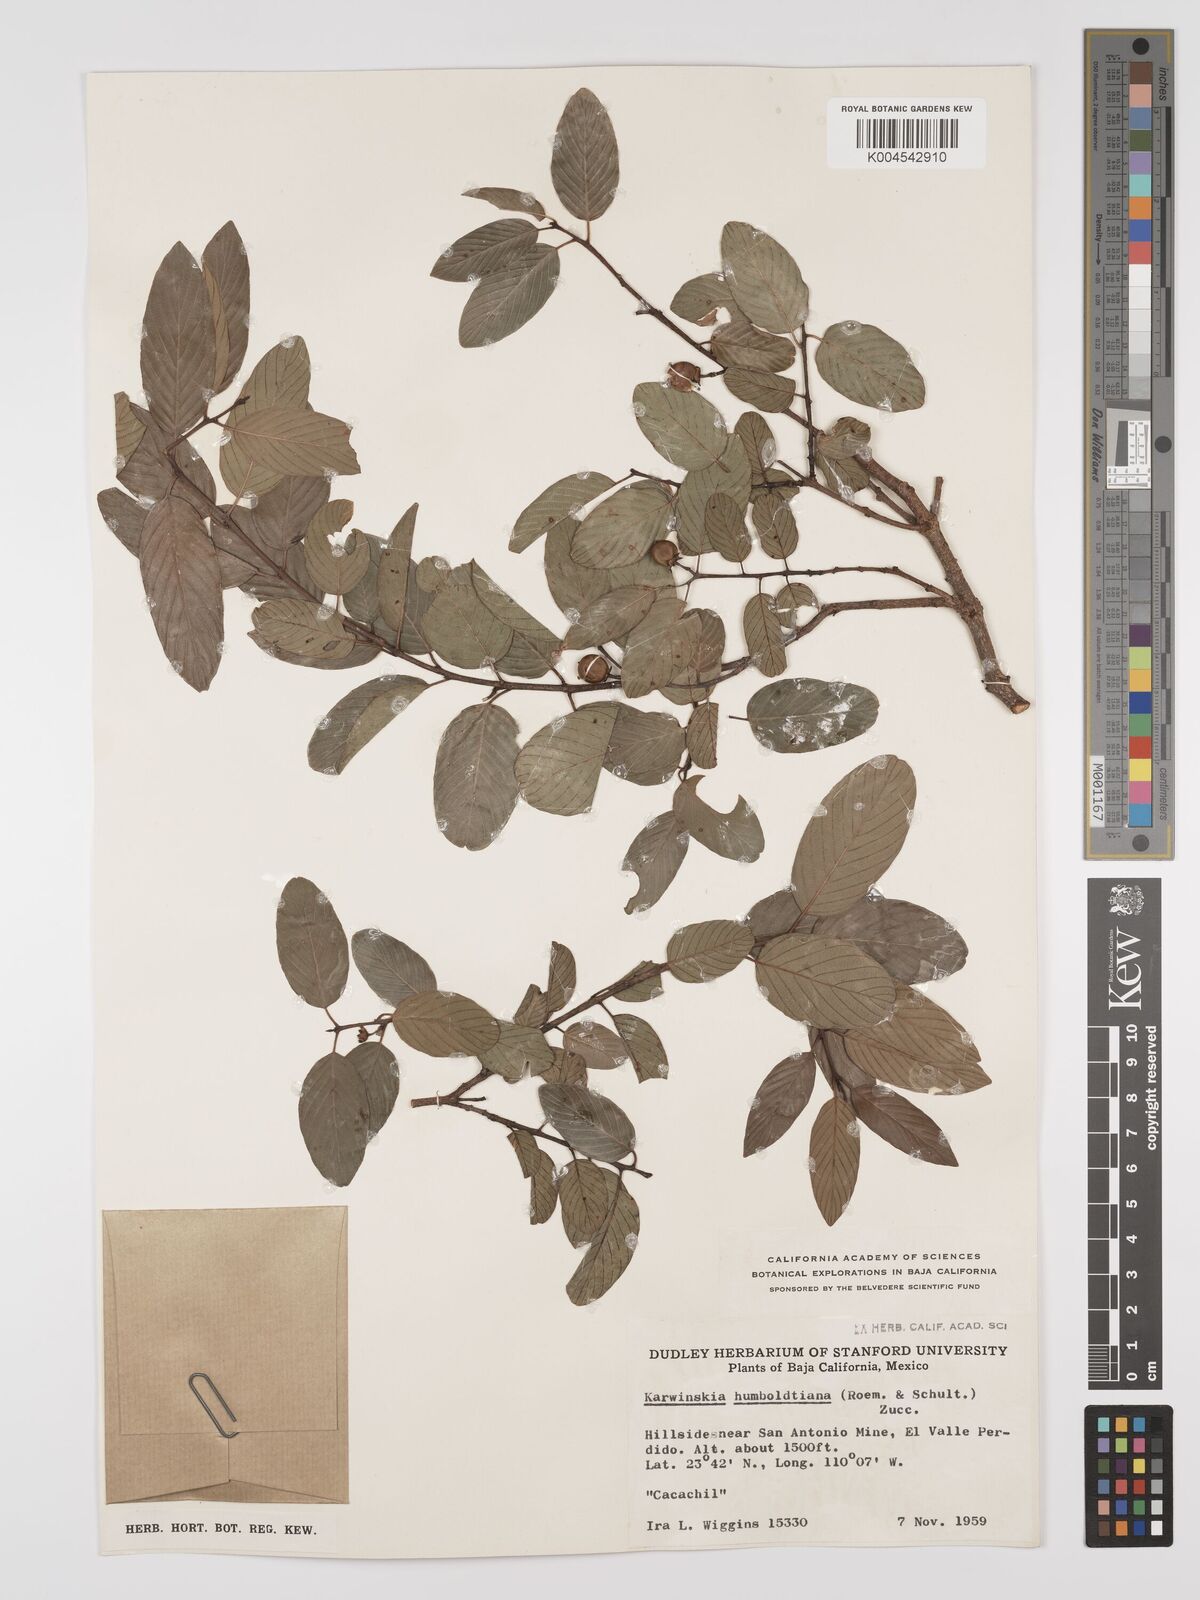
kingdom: Plantae
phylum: Tracheophyta
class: Magnoliopsida
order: Rosales
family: Rhamnaceae
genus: Karwinskia
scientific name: Karwinskia humboldtiana
